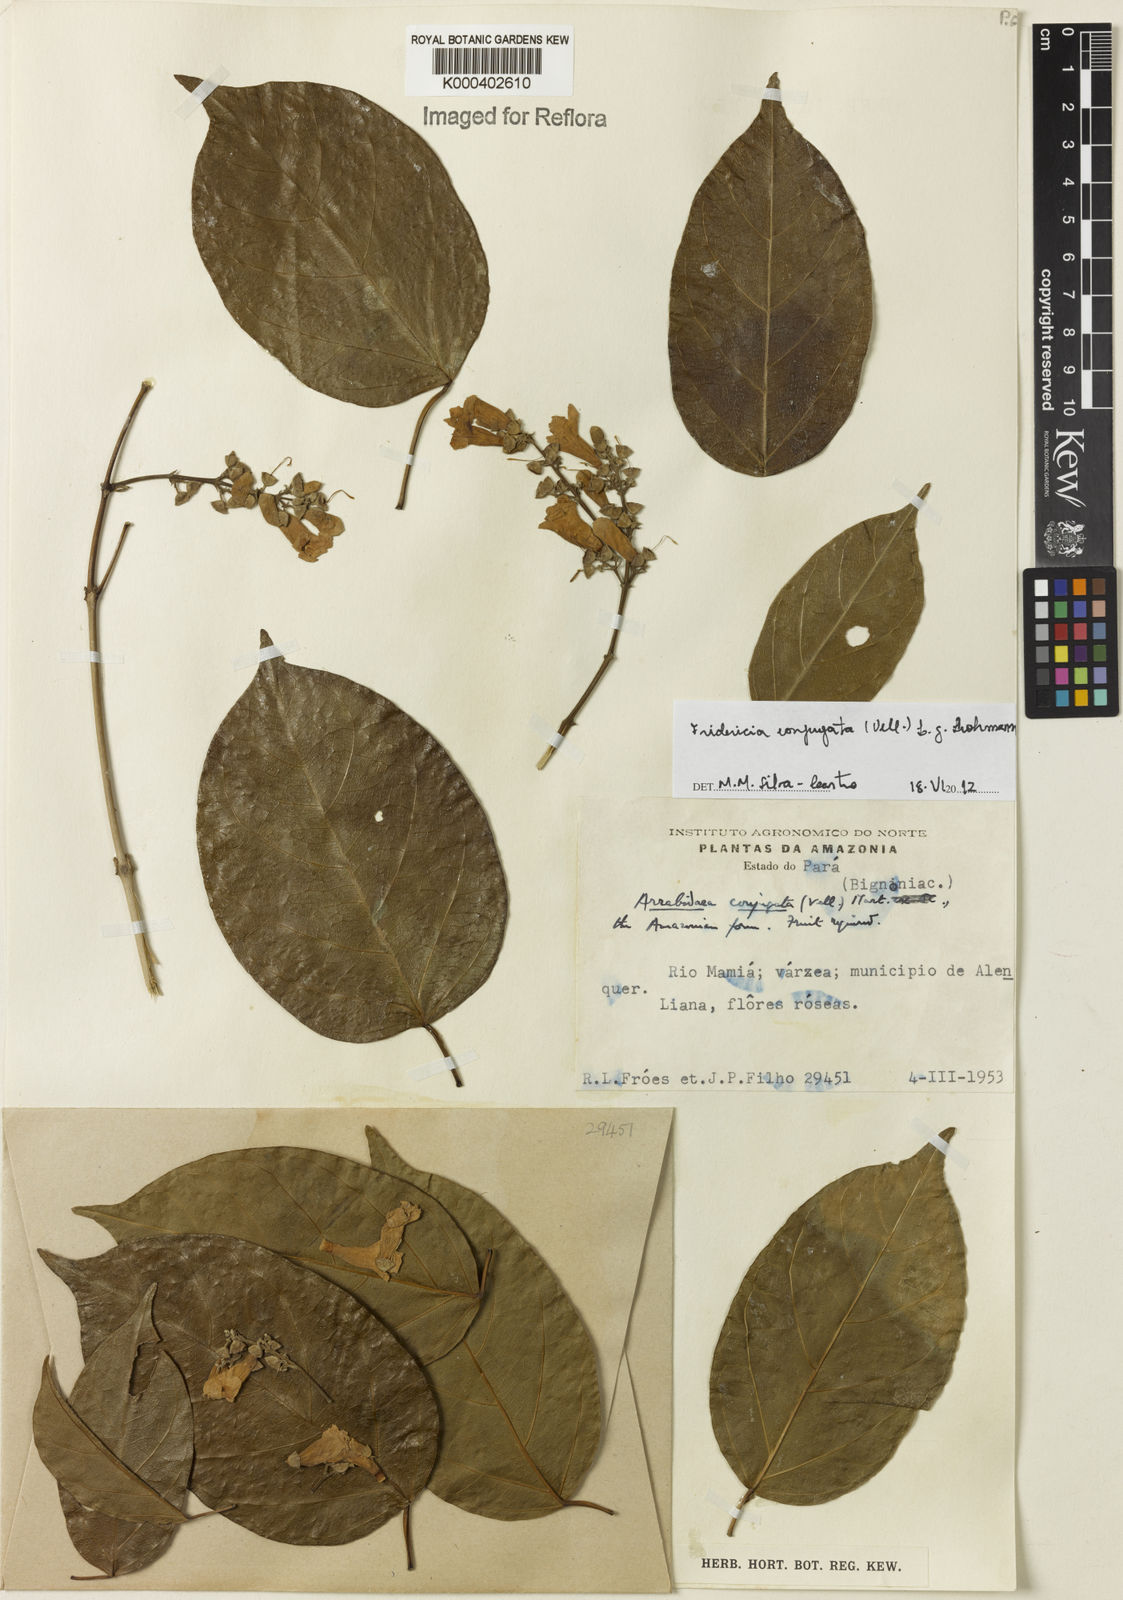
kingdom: Plantae
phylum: Tracheophyta
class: Magnoliopsida
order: Lamiales
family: Bignoniaceae
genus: Fridericia
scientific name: Fridericia conjugata
